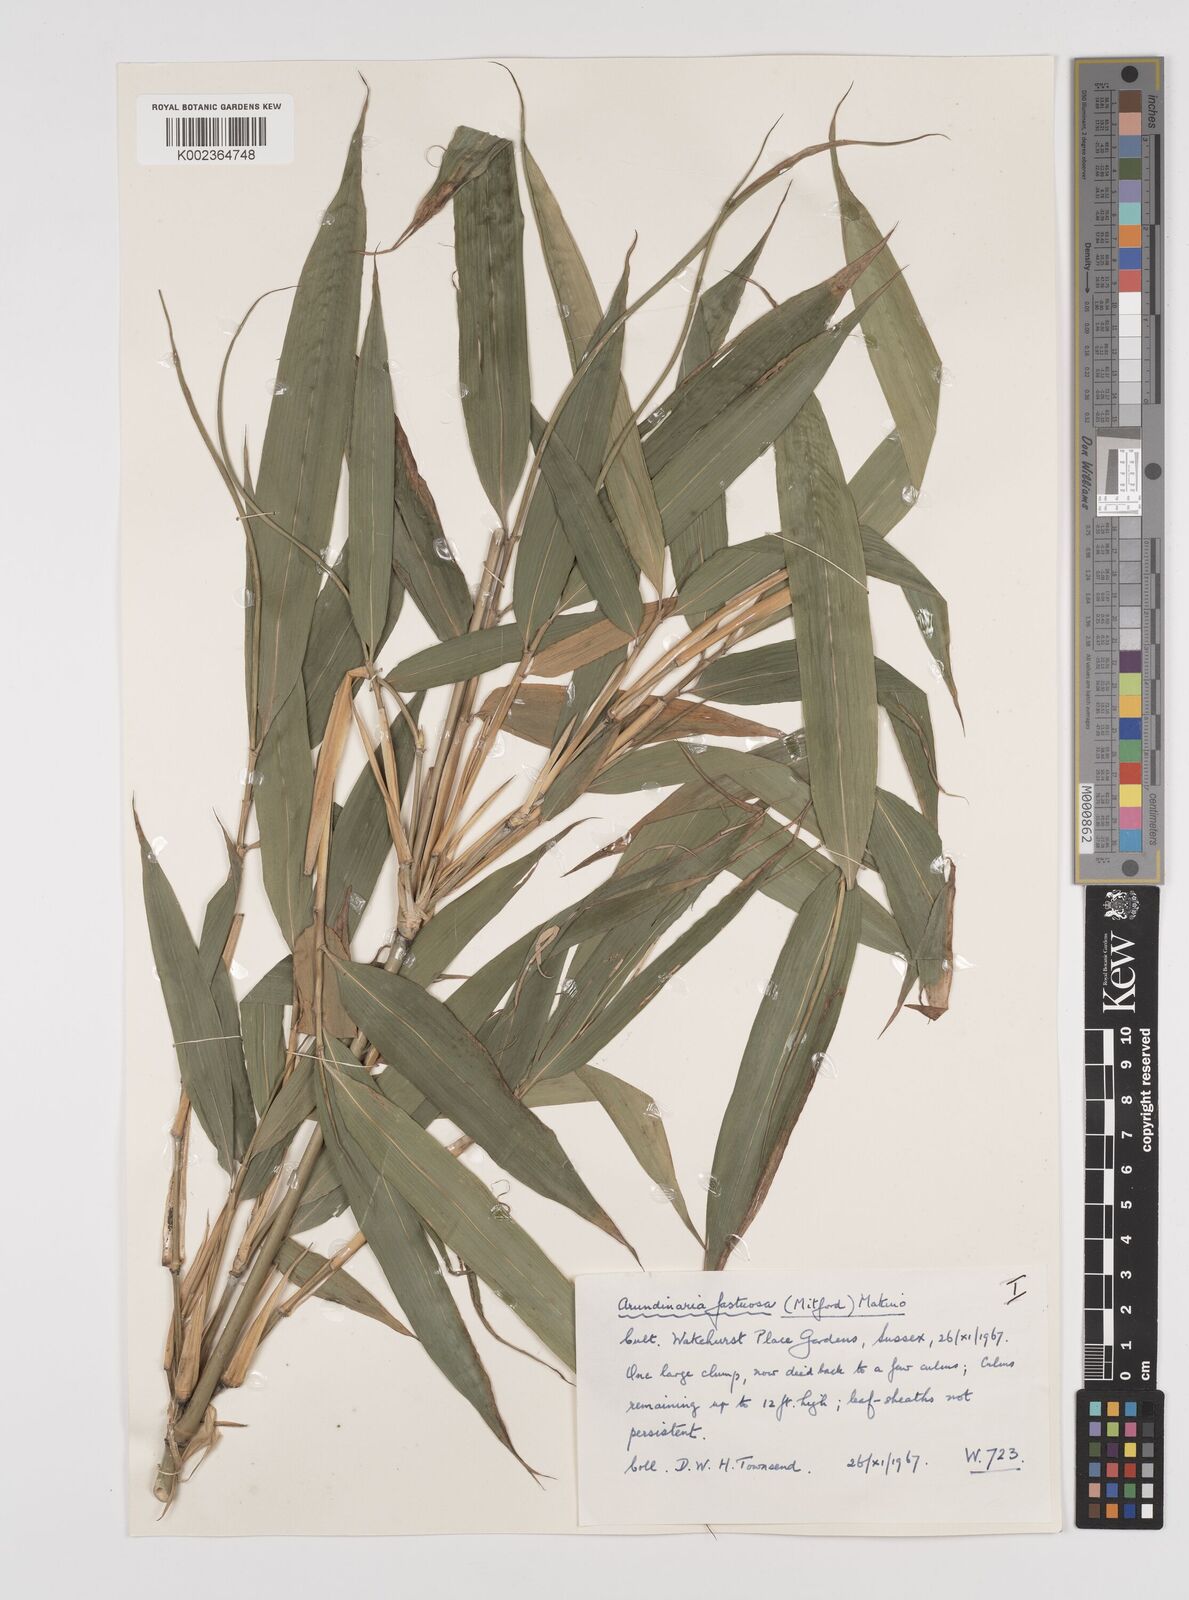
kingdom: Plantae
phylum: Tracheophyta
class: Liliopsida
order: Poales
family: Poaceae
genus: Semiarundinaria
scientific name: Semiarundinaria fastuosa
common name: Narihira bamboo
